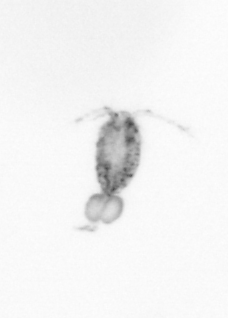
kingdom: Animalia
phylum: Arthropoda
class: Copepoda
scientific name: Copepoda
